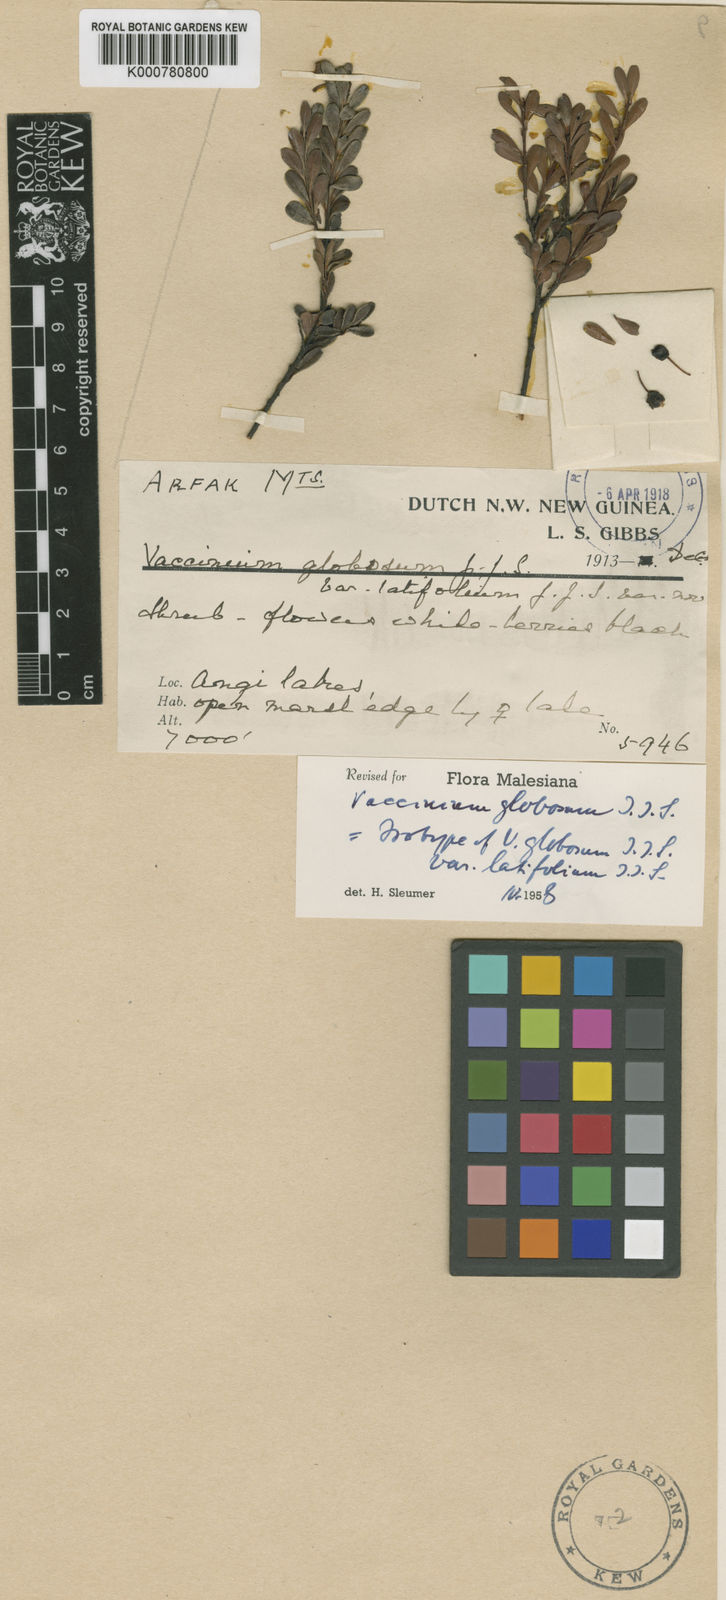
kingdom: Plantae
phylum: Tracheophyta
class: Magnoliopsida
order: Ericales
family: Ericaceae
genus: Vaccinium
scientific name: Vaccinium globosum
